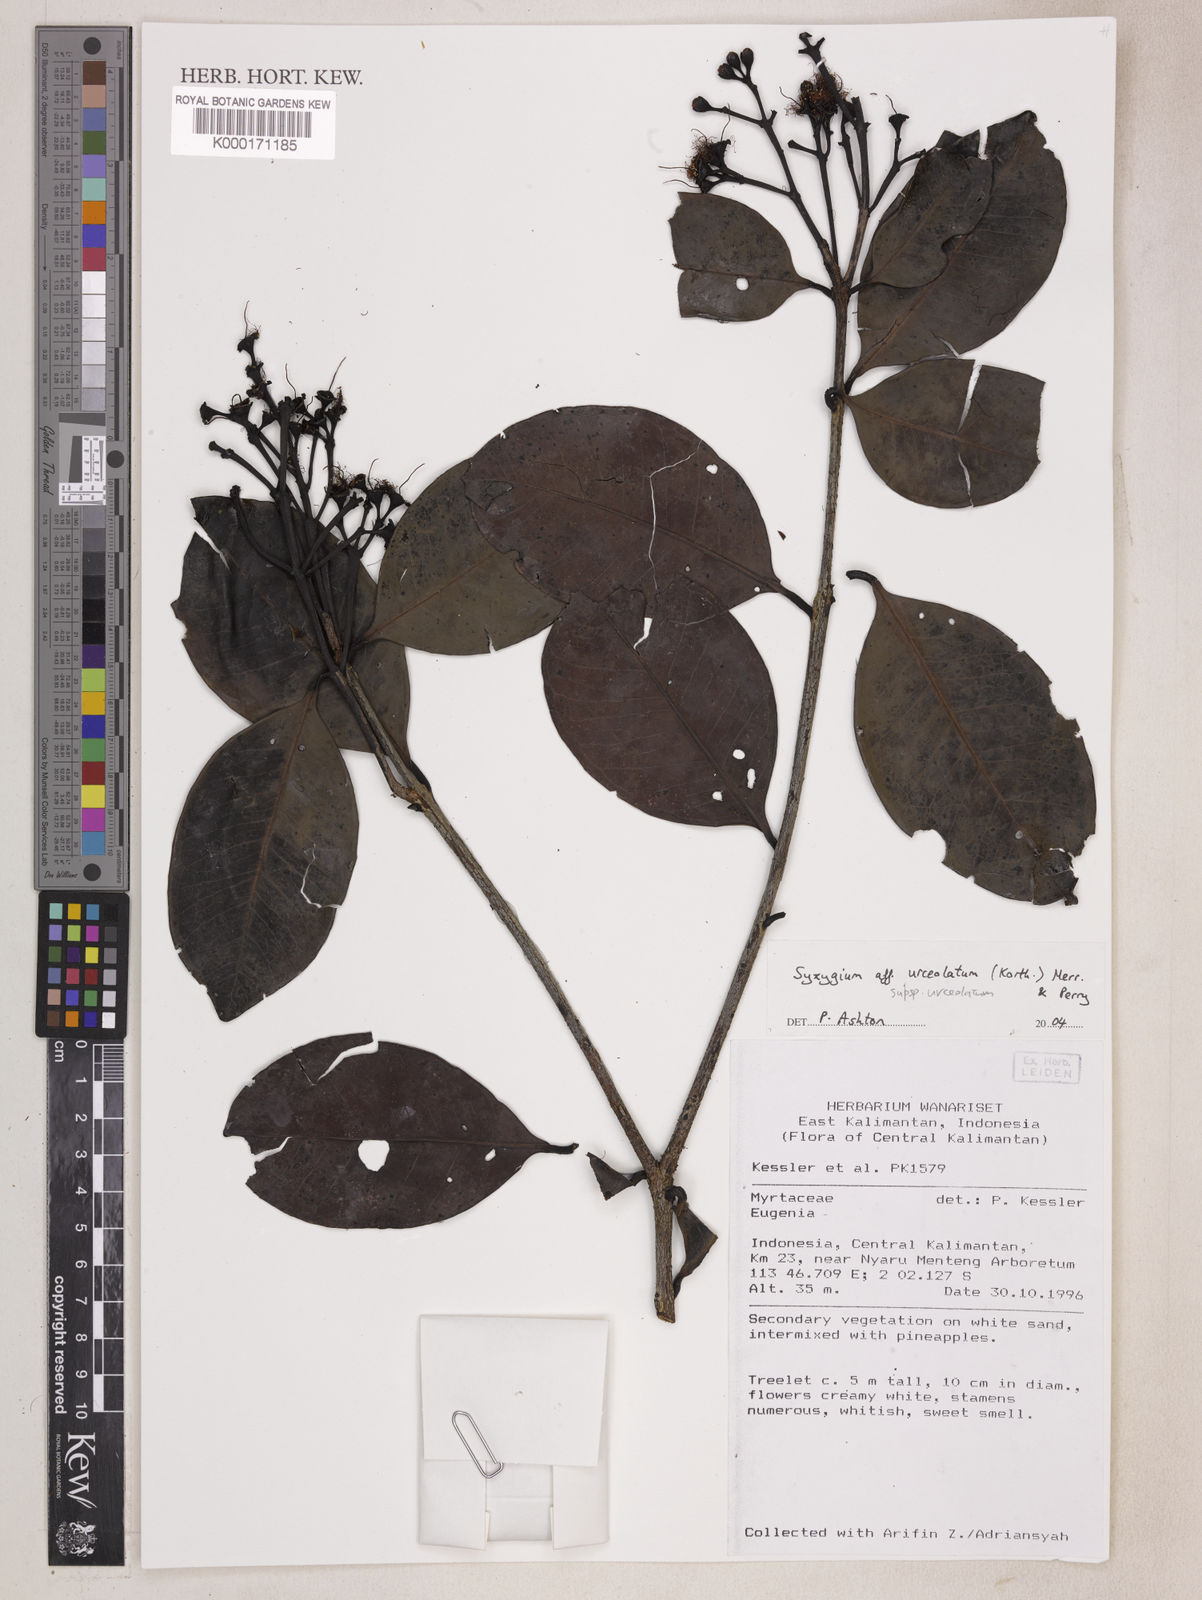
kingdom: Plantae
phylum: Tracheophyta
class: Magnoliopsida
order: Myrtales
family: Myrtaceae
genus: Syzygium
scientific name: Syzygium urceolatum
